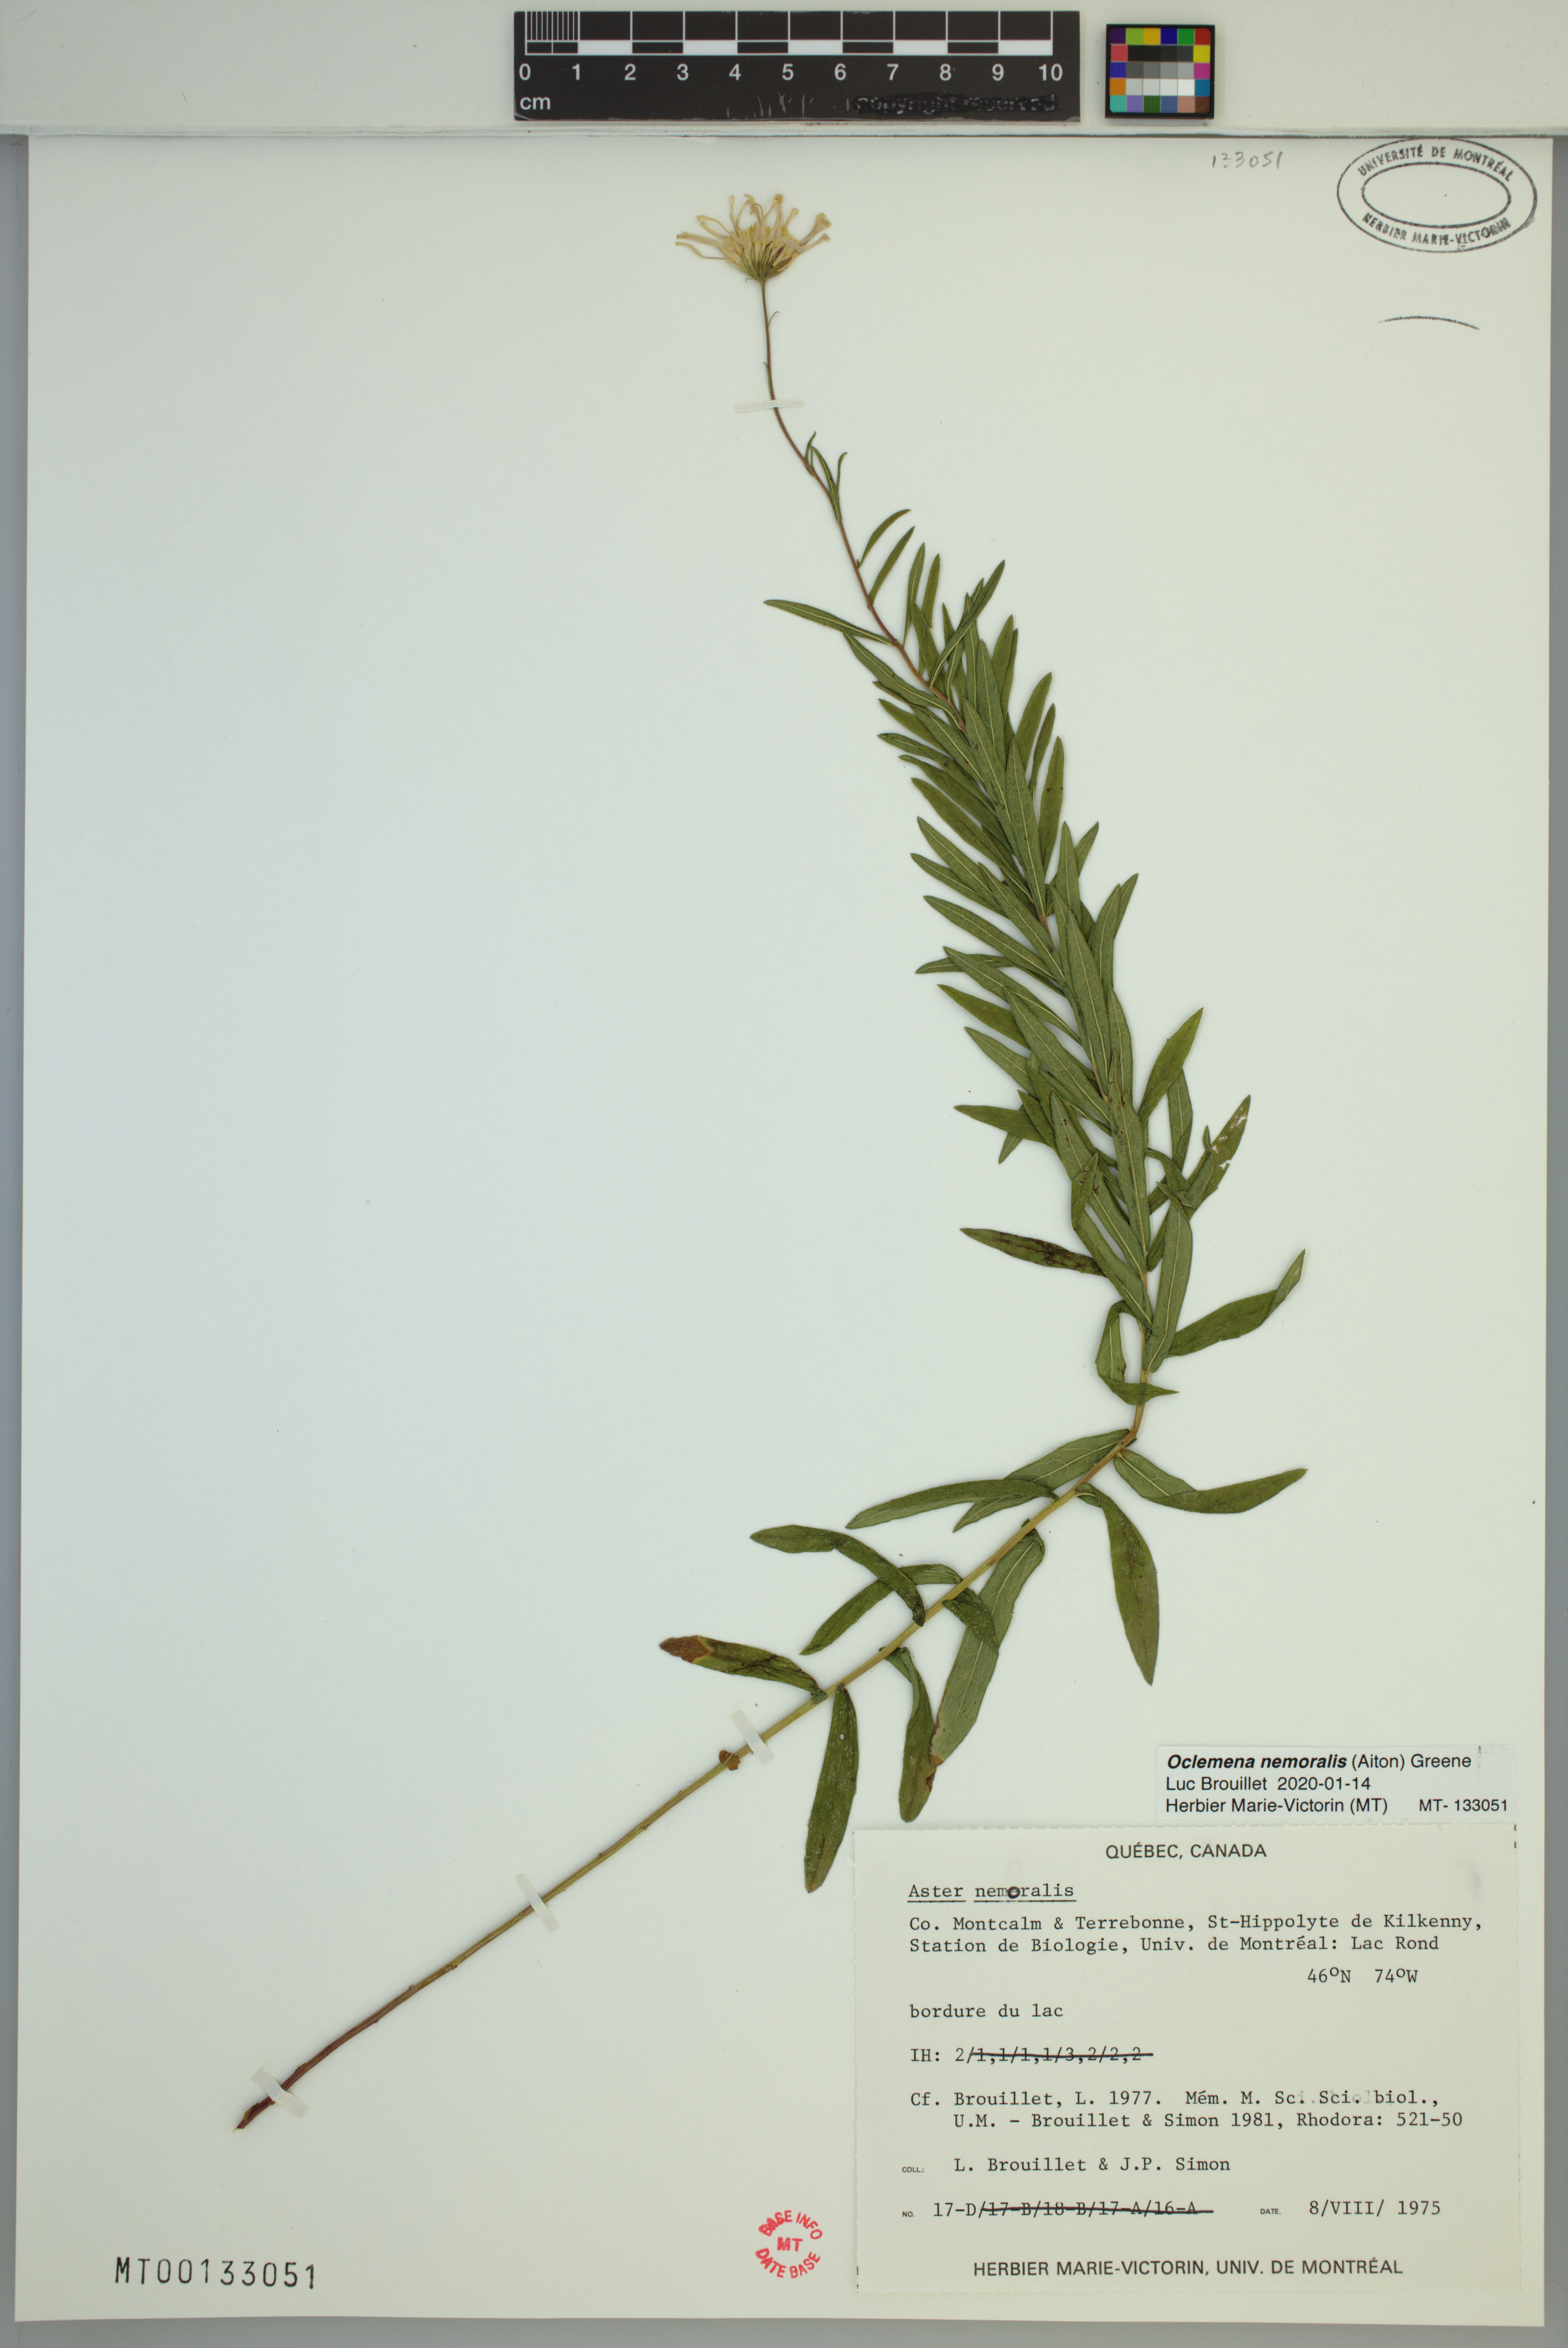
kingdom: Plantae
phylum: Tracheophyta
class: Magnoliopsida
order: Asterales
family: Asteraceae
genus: Oclemena
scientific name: Oclemena nemoralis
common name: Bog aster
